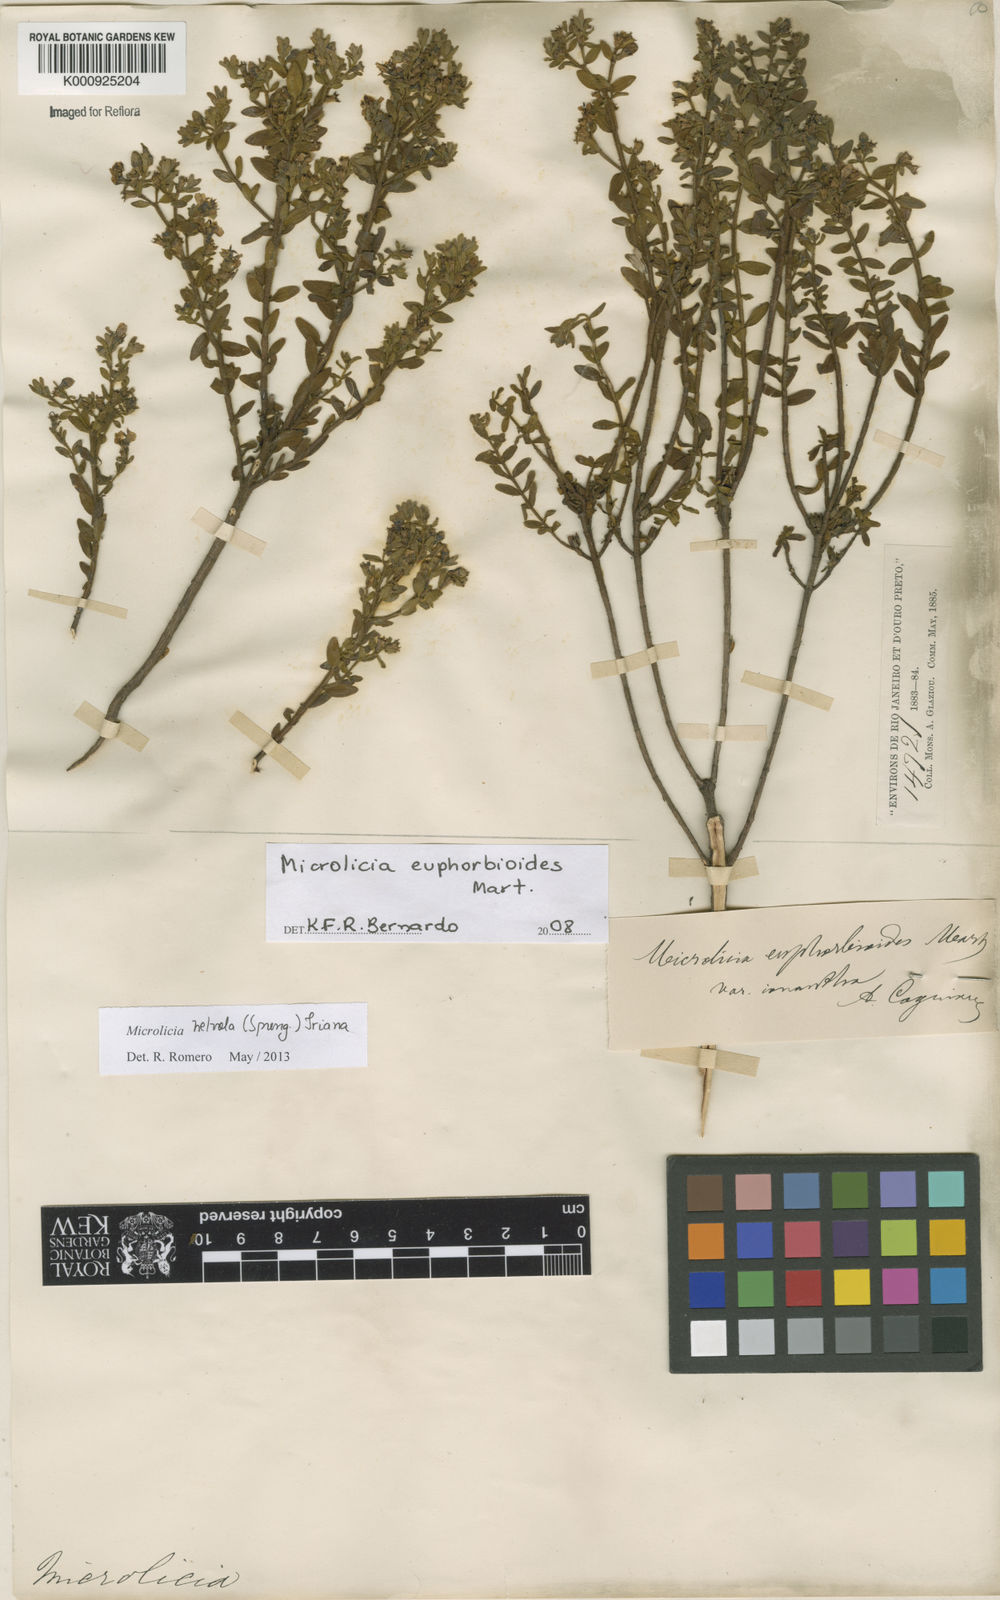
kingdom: Plantae
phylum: Tracheophyta
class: Magnoliopsida
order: Myrtales
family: Melastomataceae
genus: Microlicia
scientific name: Microlicia helvola
